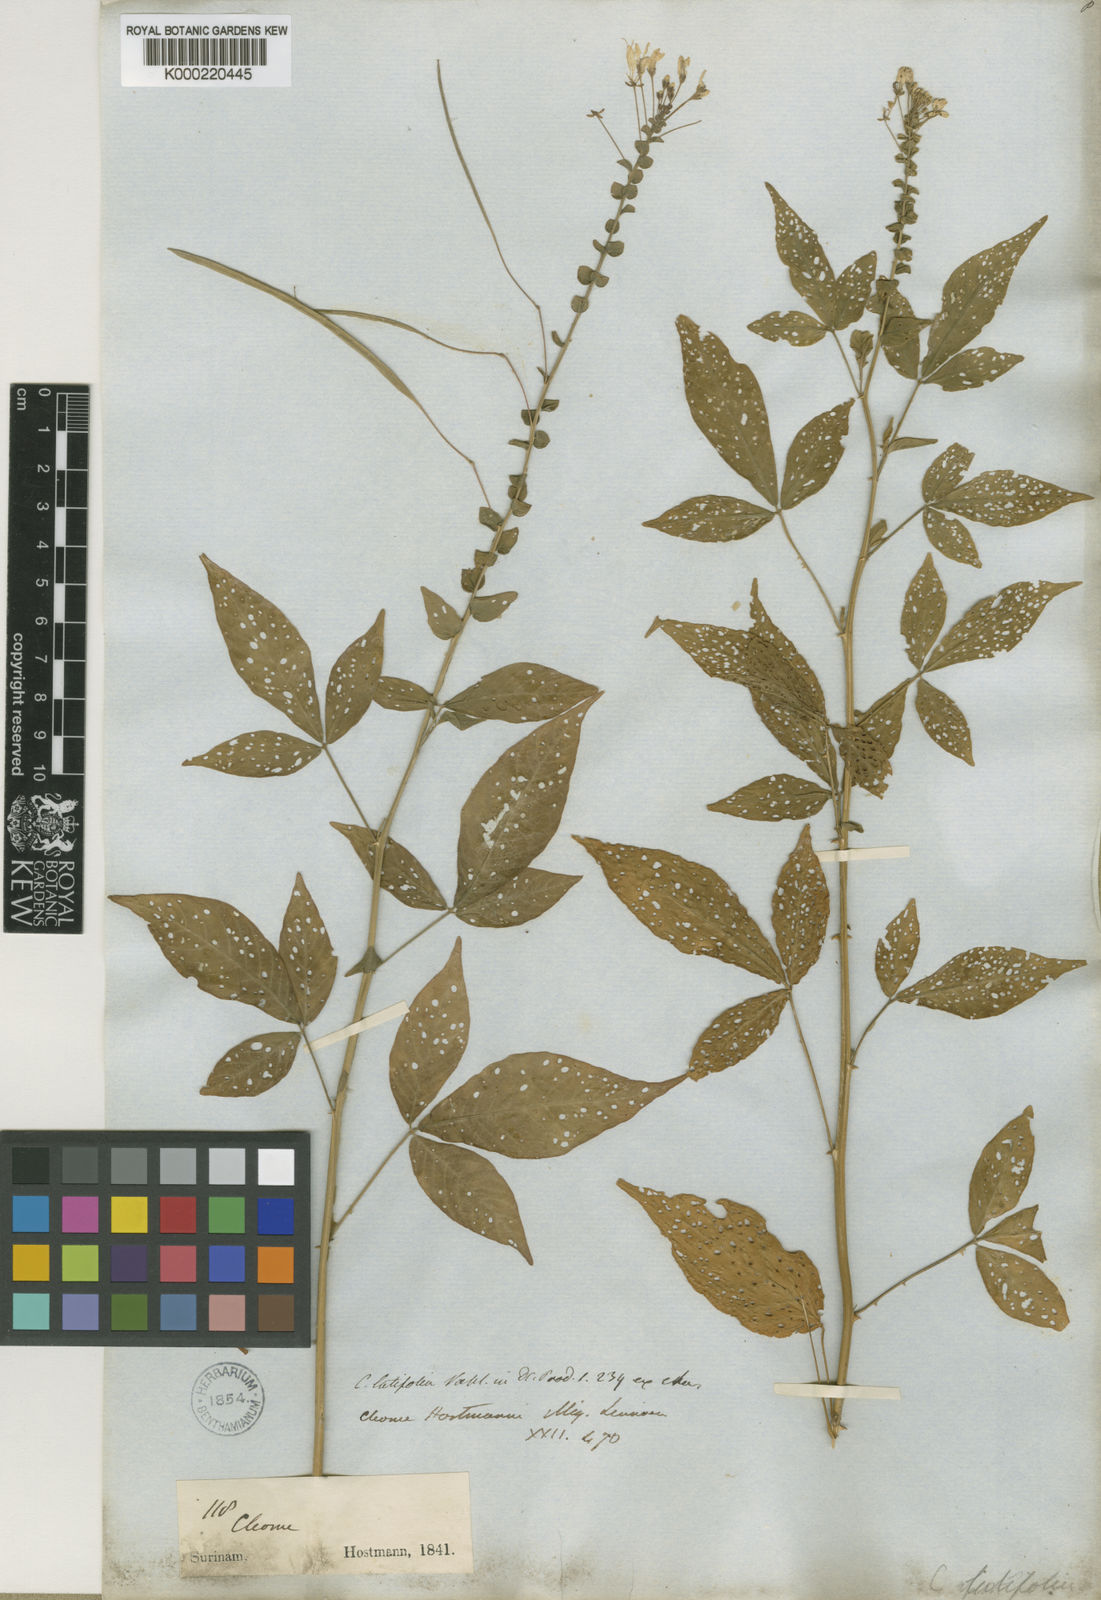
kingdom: Plantae
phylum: Tracheophyta
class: Magnoliopsida
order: Brassicales
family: Cleomaceae
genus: Tarenaya
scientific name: Tarenaya latifolia
